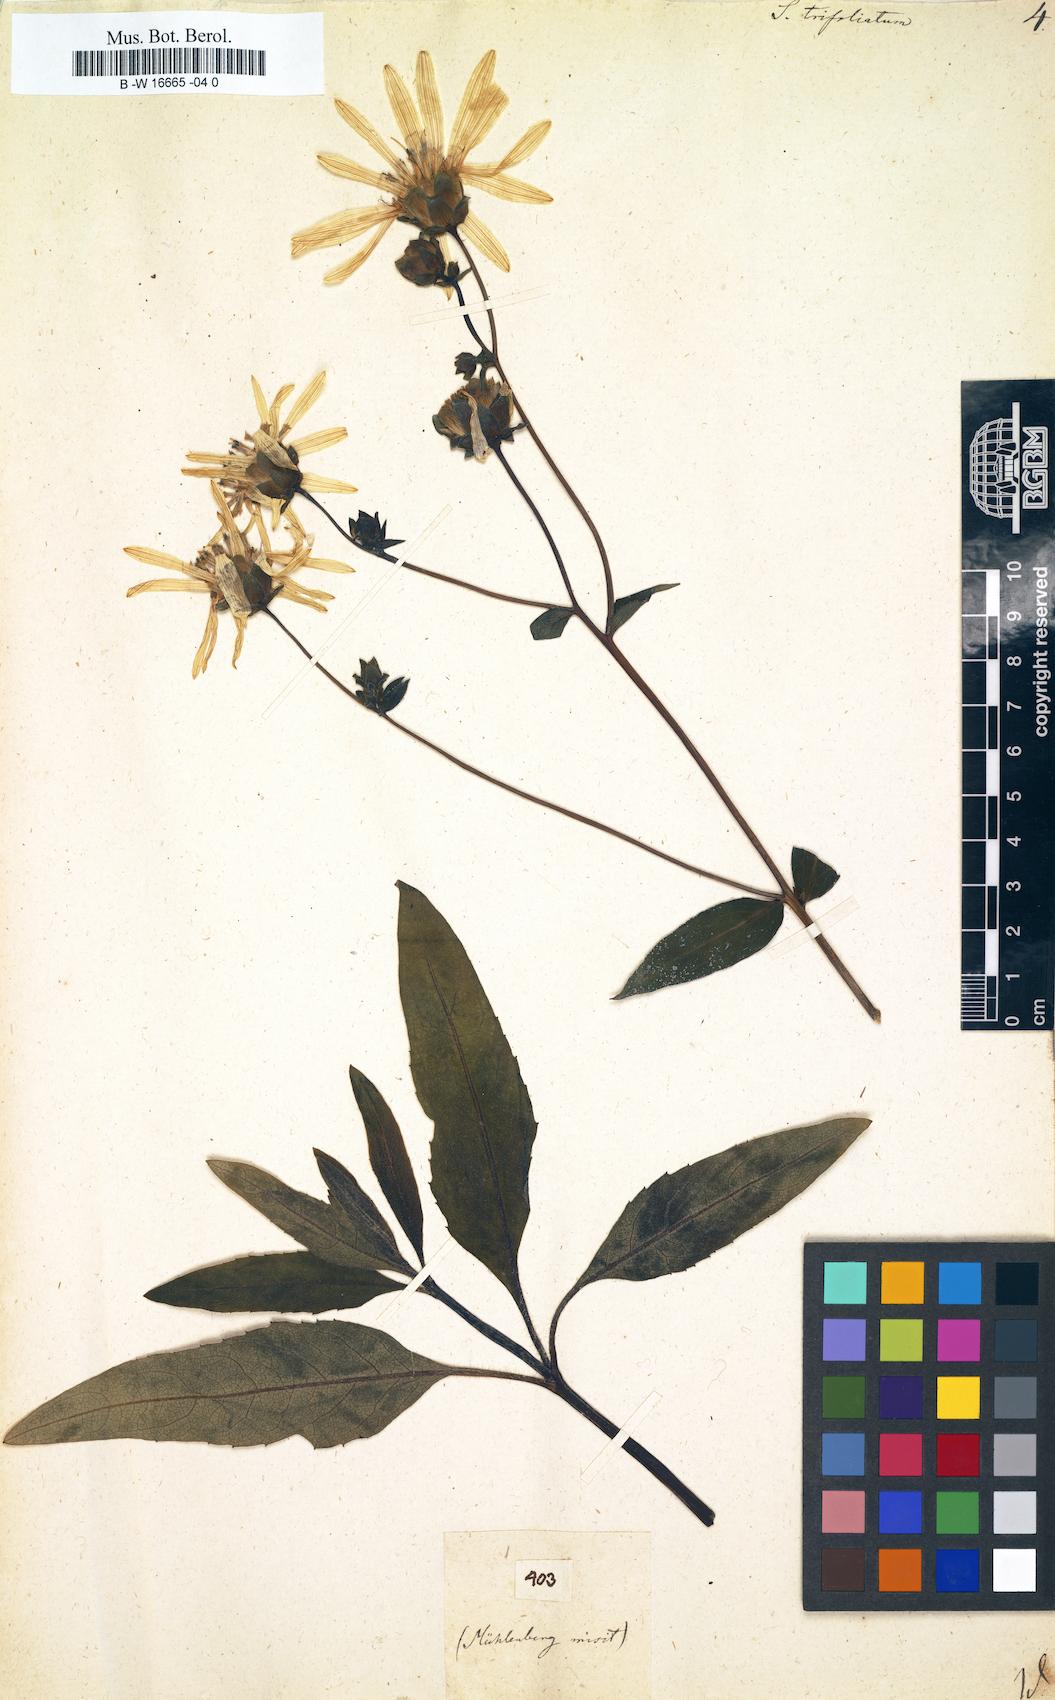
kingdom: Plantae
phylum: Tracheophyta
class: Magnoliopsida
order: Asterales
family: Asteraceae
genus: Silphium
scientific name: Silphium asteriscus
